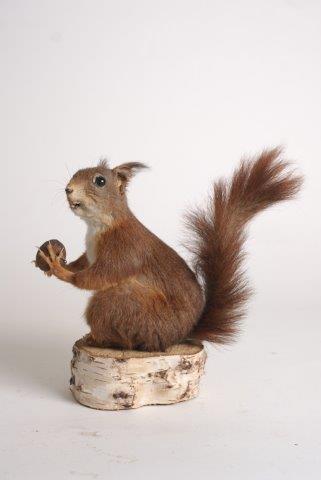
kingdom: Animalia
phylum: Chordata
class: Mammalia
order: Rodentia
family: Sciuridae
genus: Sciurus
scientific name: Sciurus vulgaris
